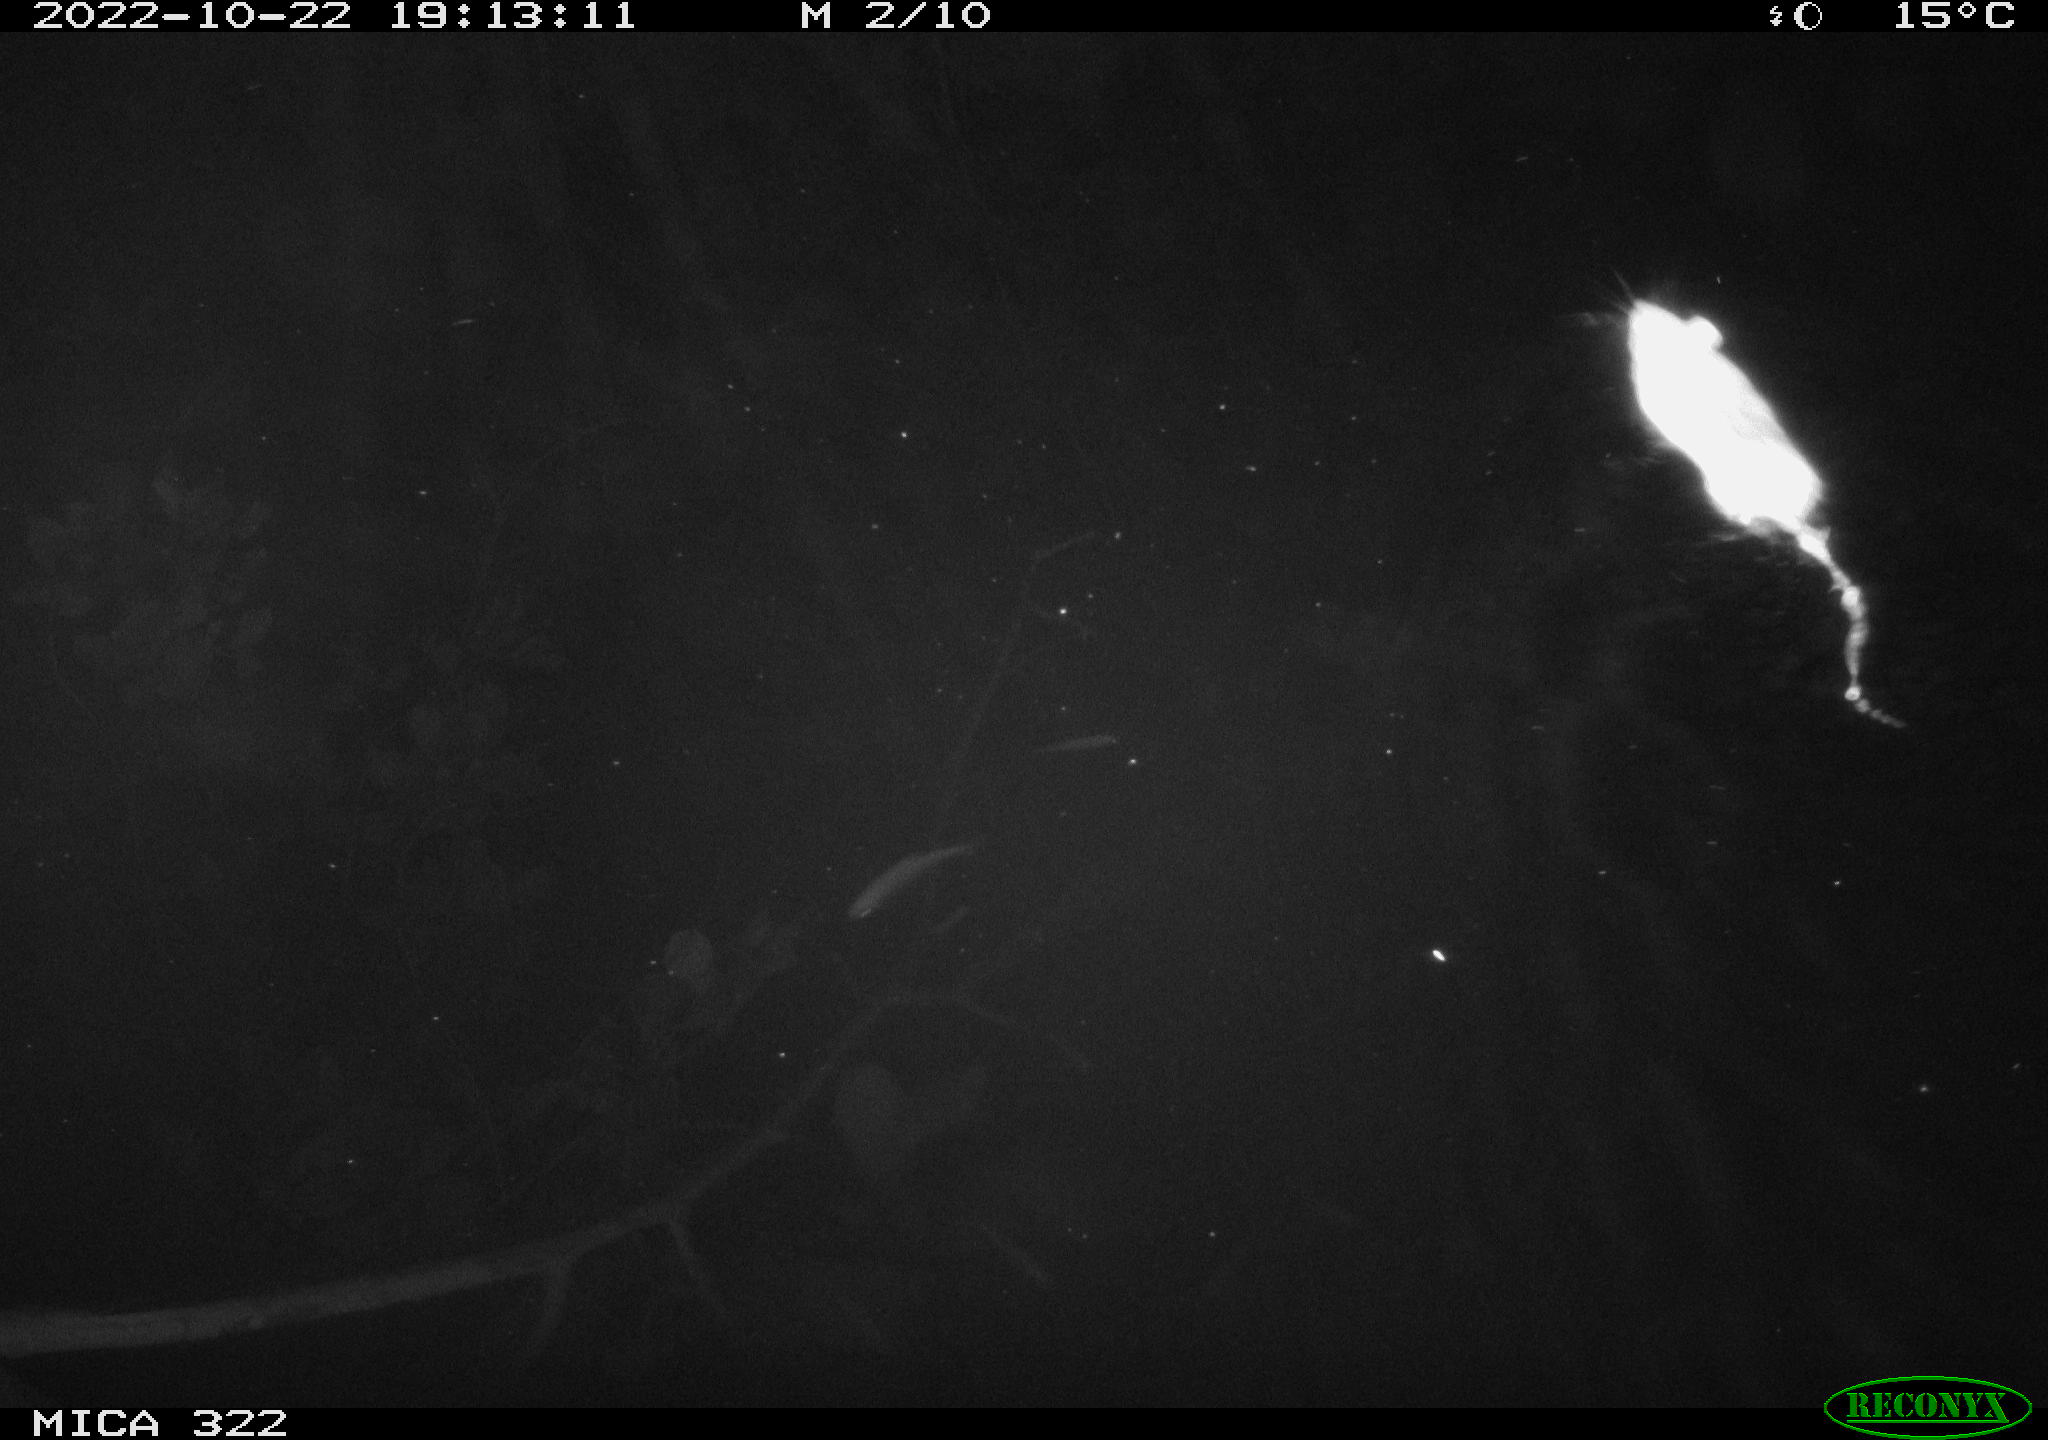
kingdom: Animalia
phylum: Chordata
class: Mammalia
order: Rodentia
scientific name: Rodentia
